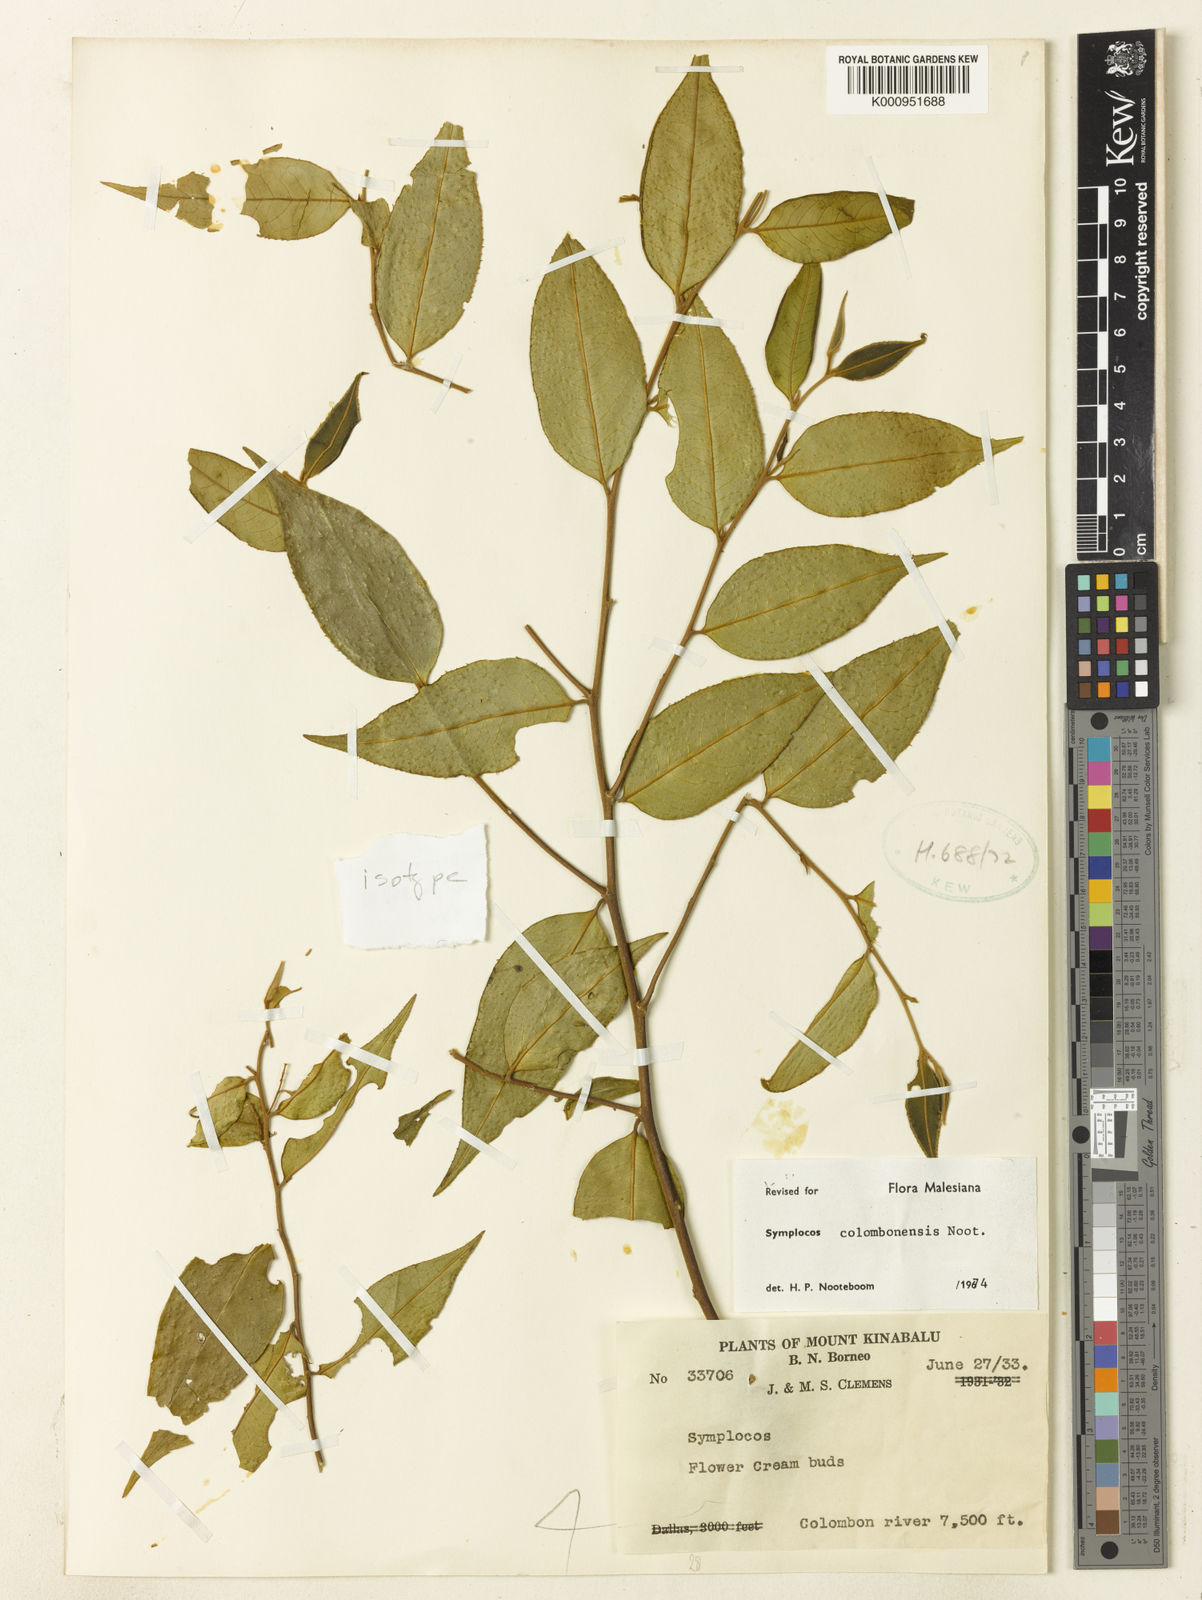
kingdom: Plantae
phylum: Tracheophyta
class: Magnoliopsida
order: Ericales
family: Symplocaceae
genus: Symplocos
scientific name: Symplocos colombonensis
